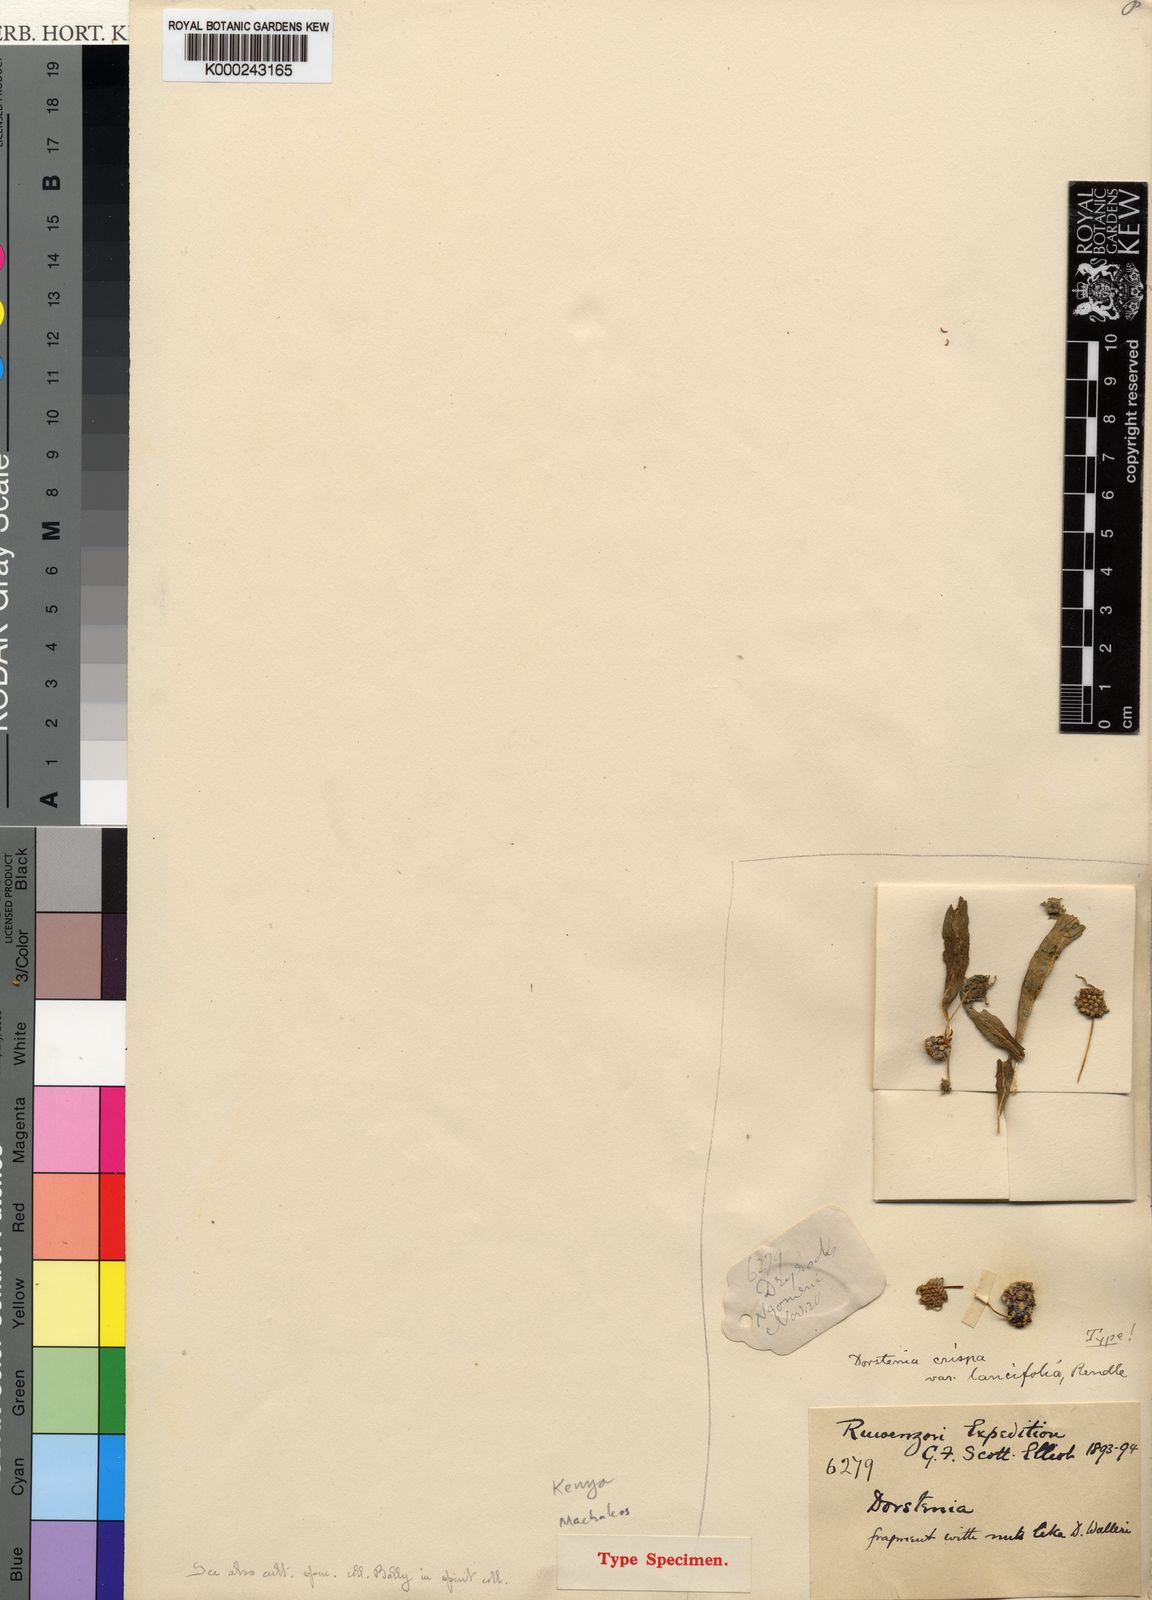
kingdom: Plantae
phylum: Tracheophyta
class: Magnoliopsida
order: Rosales
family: Moraceae
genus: Dorstenia
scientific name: Dorstenia foetida
